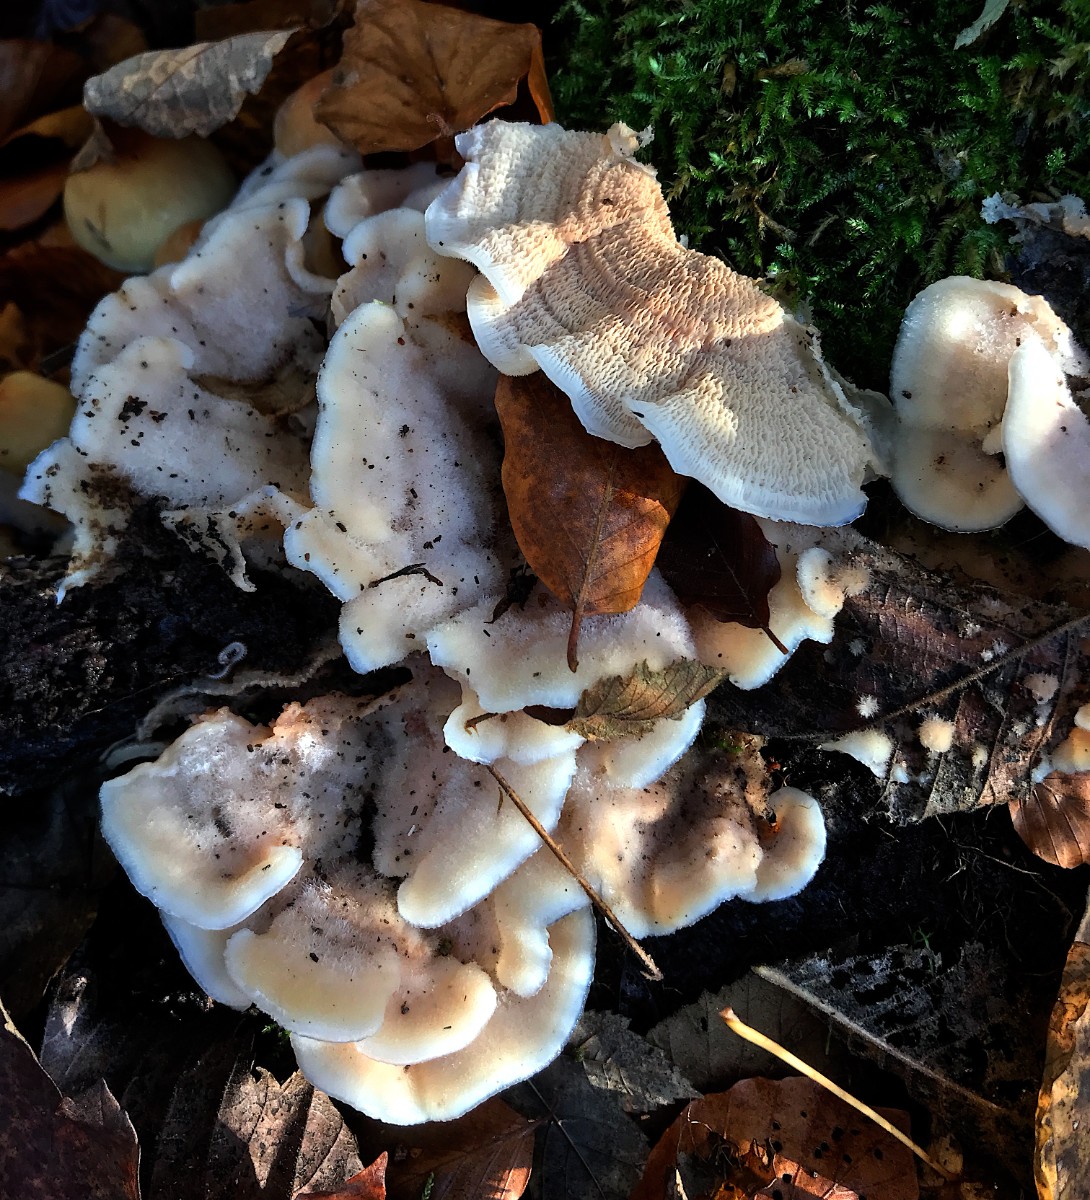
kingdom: Fungi
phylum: Basidiomycota
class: Agaricomycetes
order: Polyporales
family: Meruliaceae
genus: Phlebia
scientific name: Phlebia tremellosa
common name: bævrende åresvamp
